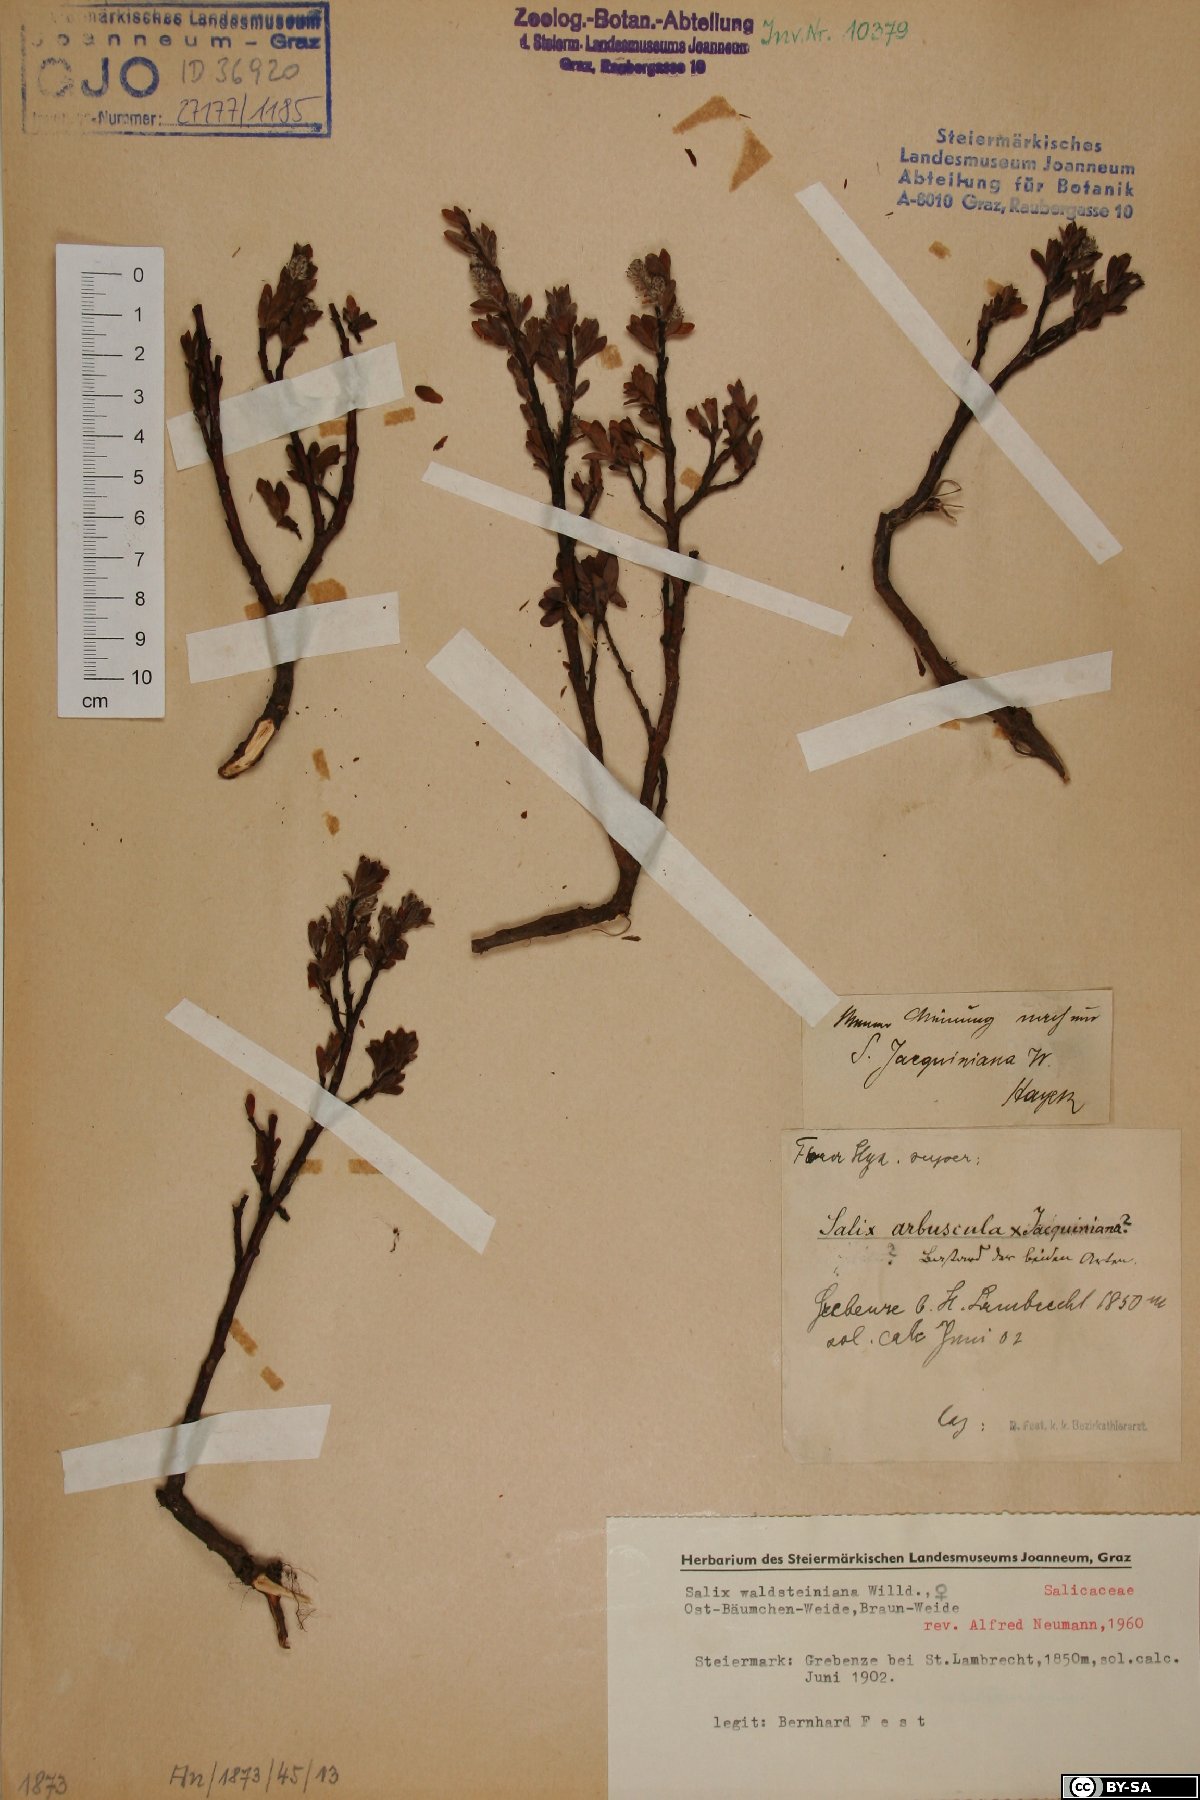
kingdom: Plantae
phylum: Tracheophyta
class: Magnoliopsida
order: Malpighiales
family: Salicaceae
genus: Salix
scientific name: Salix waldsteiniana
